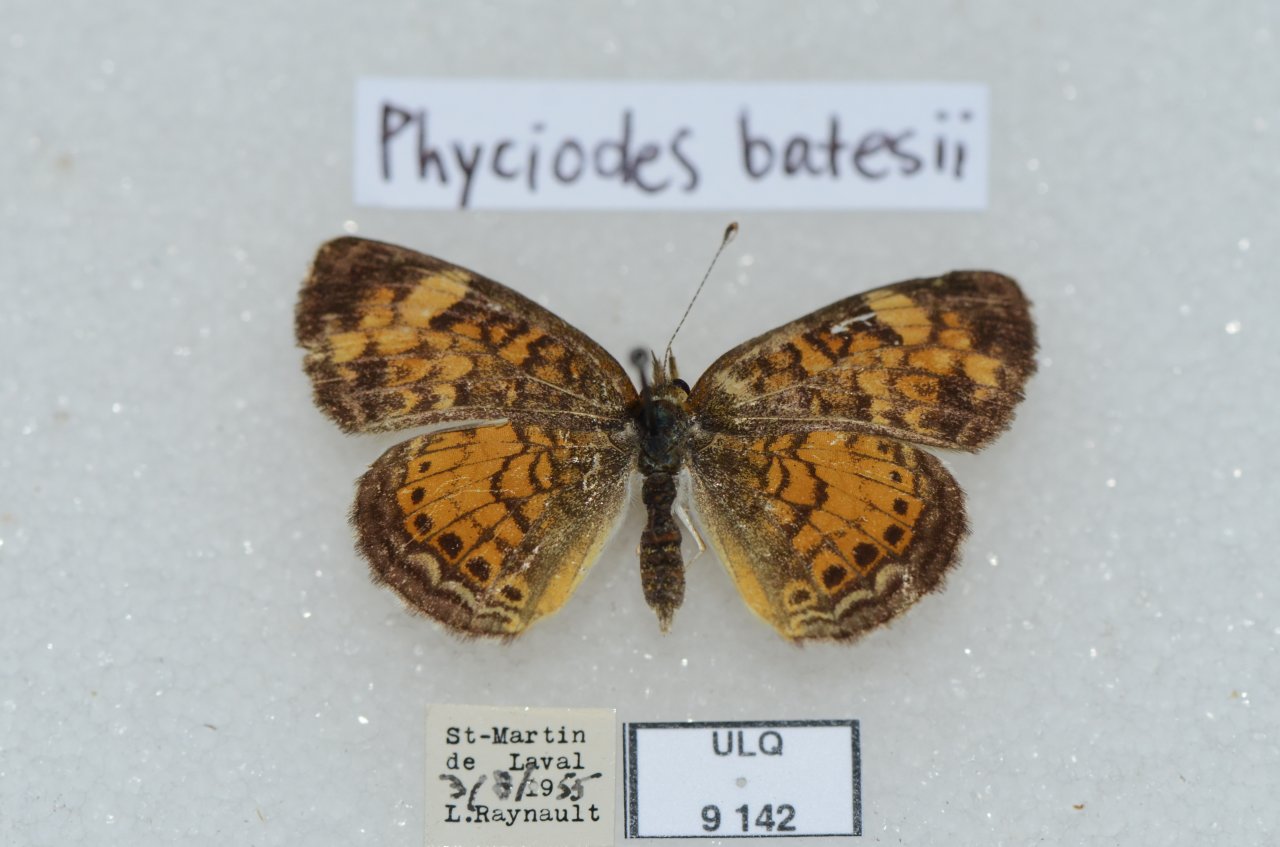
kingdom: Animalia
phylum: Arthropoda
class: Insecta
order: Lepidoptera
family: Nymphalidae
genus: Phyciodes
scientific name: Phyciodes tharos
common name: Northern Crescent
